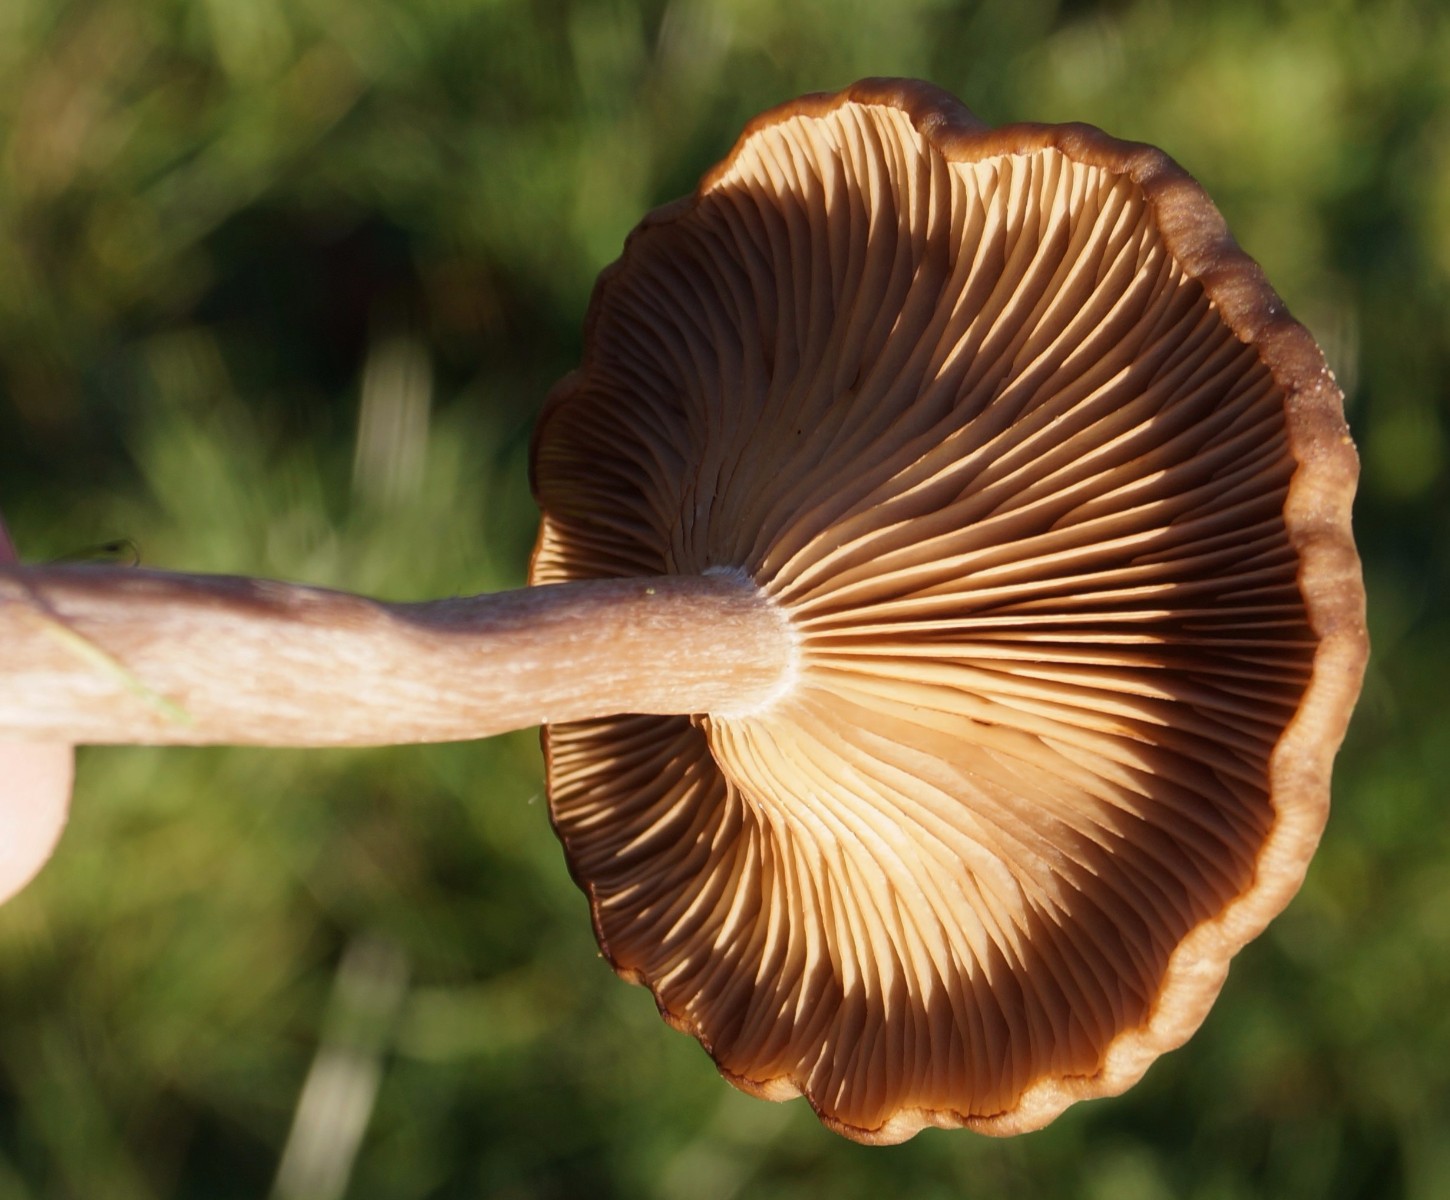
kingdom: Fungi
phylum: Basidiomycota
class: Agaricomycetes
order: Agaricales
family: Pseudoclitocybaceae
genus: Pseudoclitocybe
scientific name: Pseudoclitocybe cyathiformis
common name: almindelig bægertragthat
